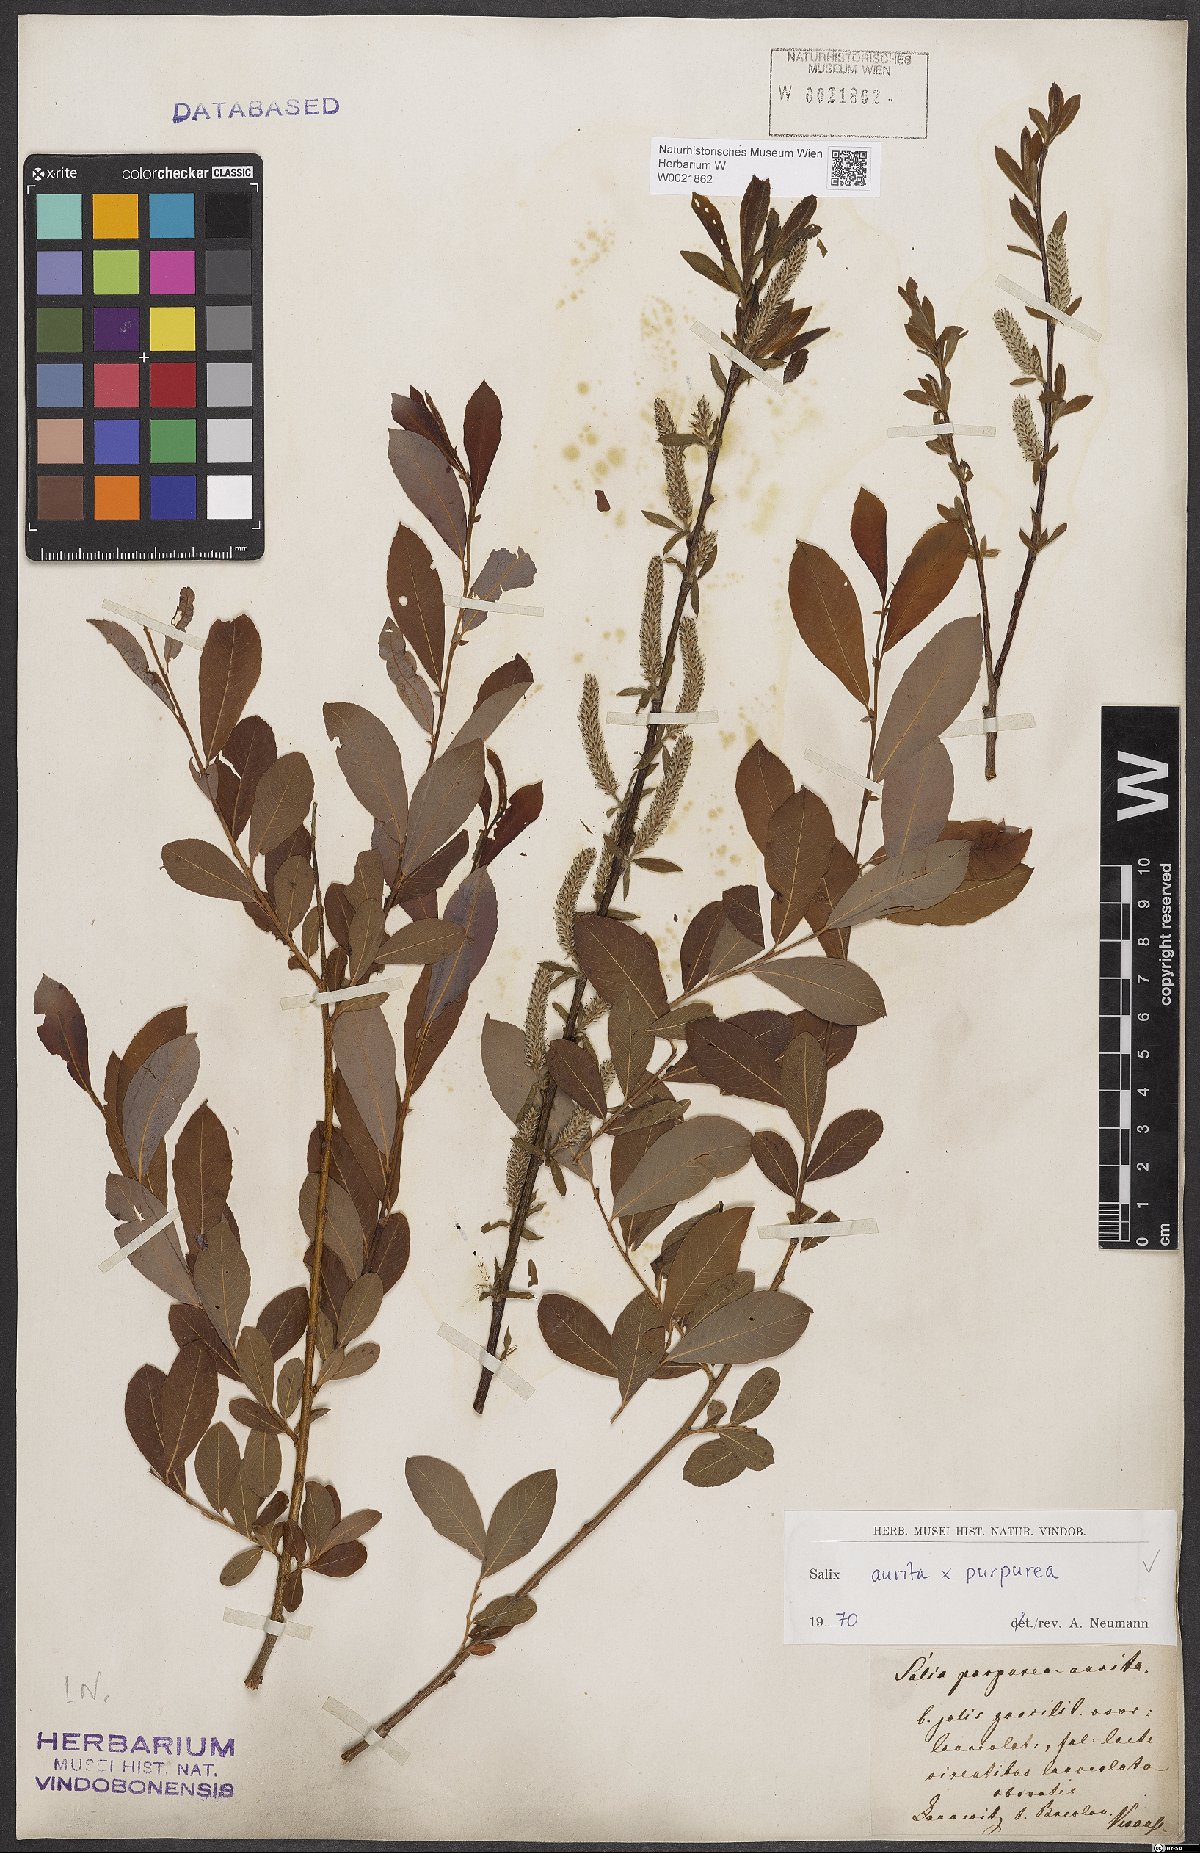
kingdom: Plantae
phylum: Tracheophyta
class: Magnoliopsida
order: Malpighiales
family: Salicaceae
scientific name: Salicaceae
